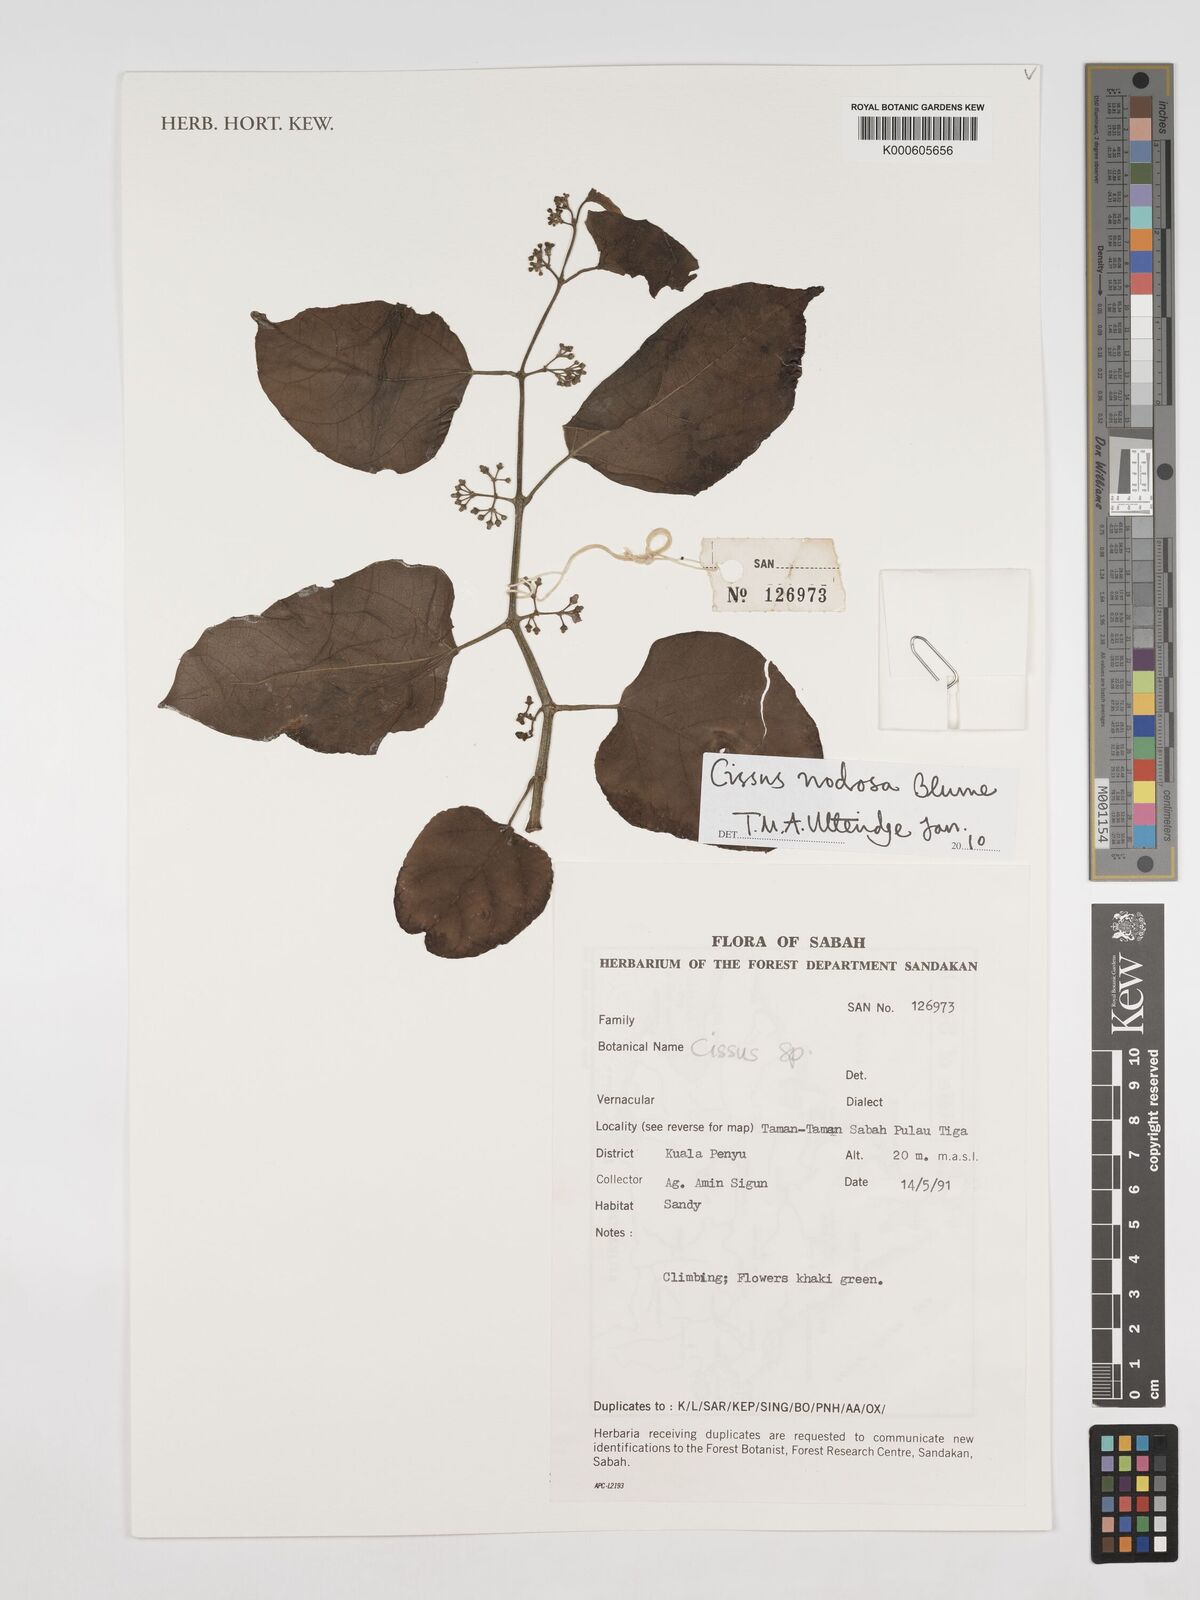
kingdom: Plantae
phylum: Tracheophyta
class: Magnoliopsida
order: Vitales
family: Vitaceae
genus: Cissus
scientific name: Cissus nodosa
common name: Grape ivy
